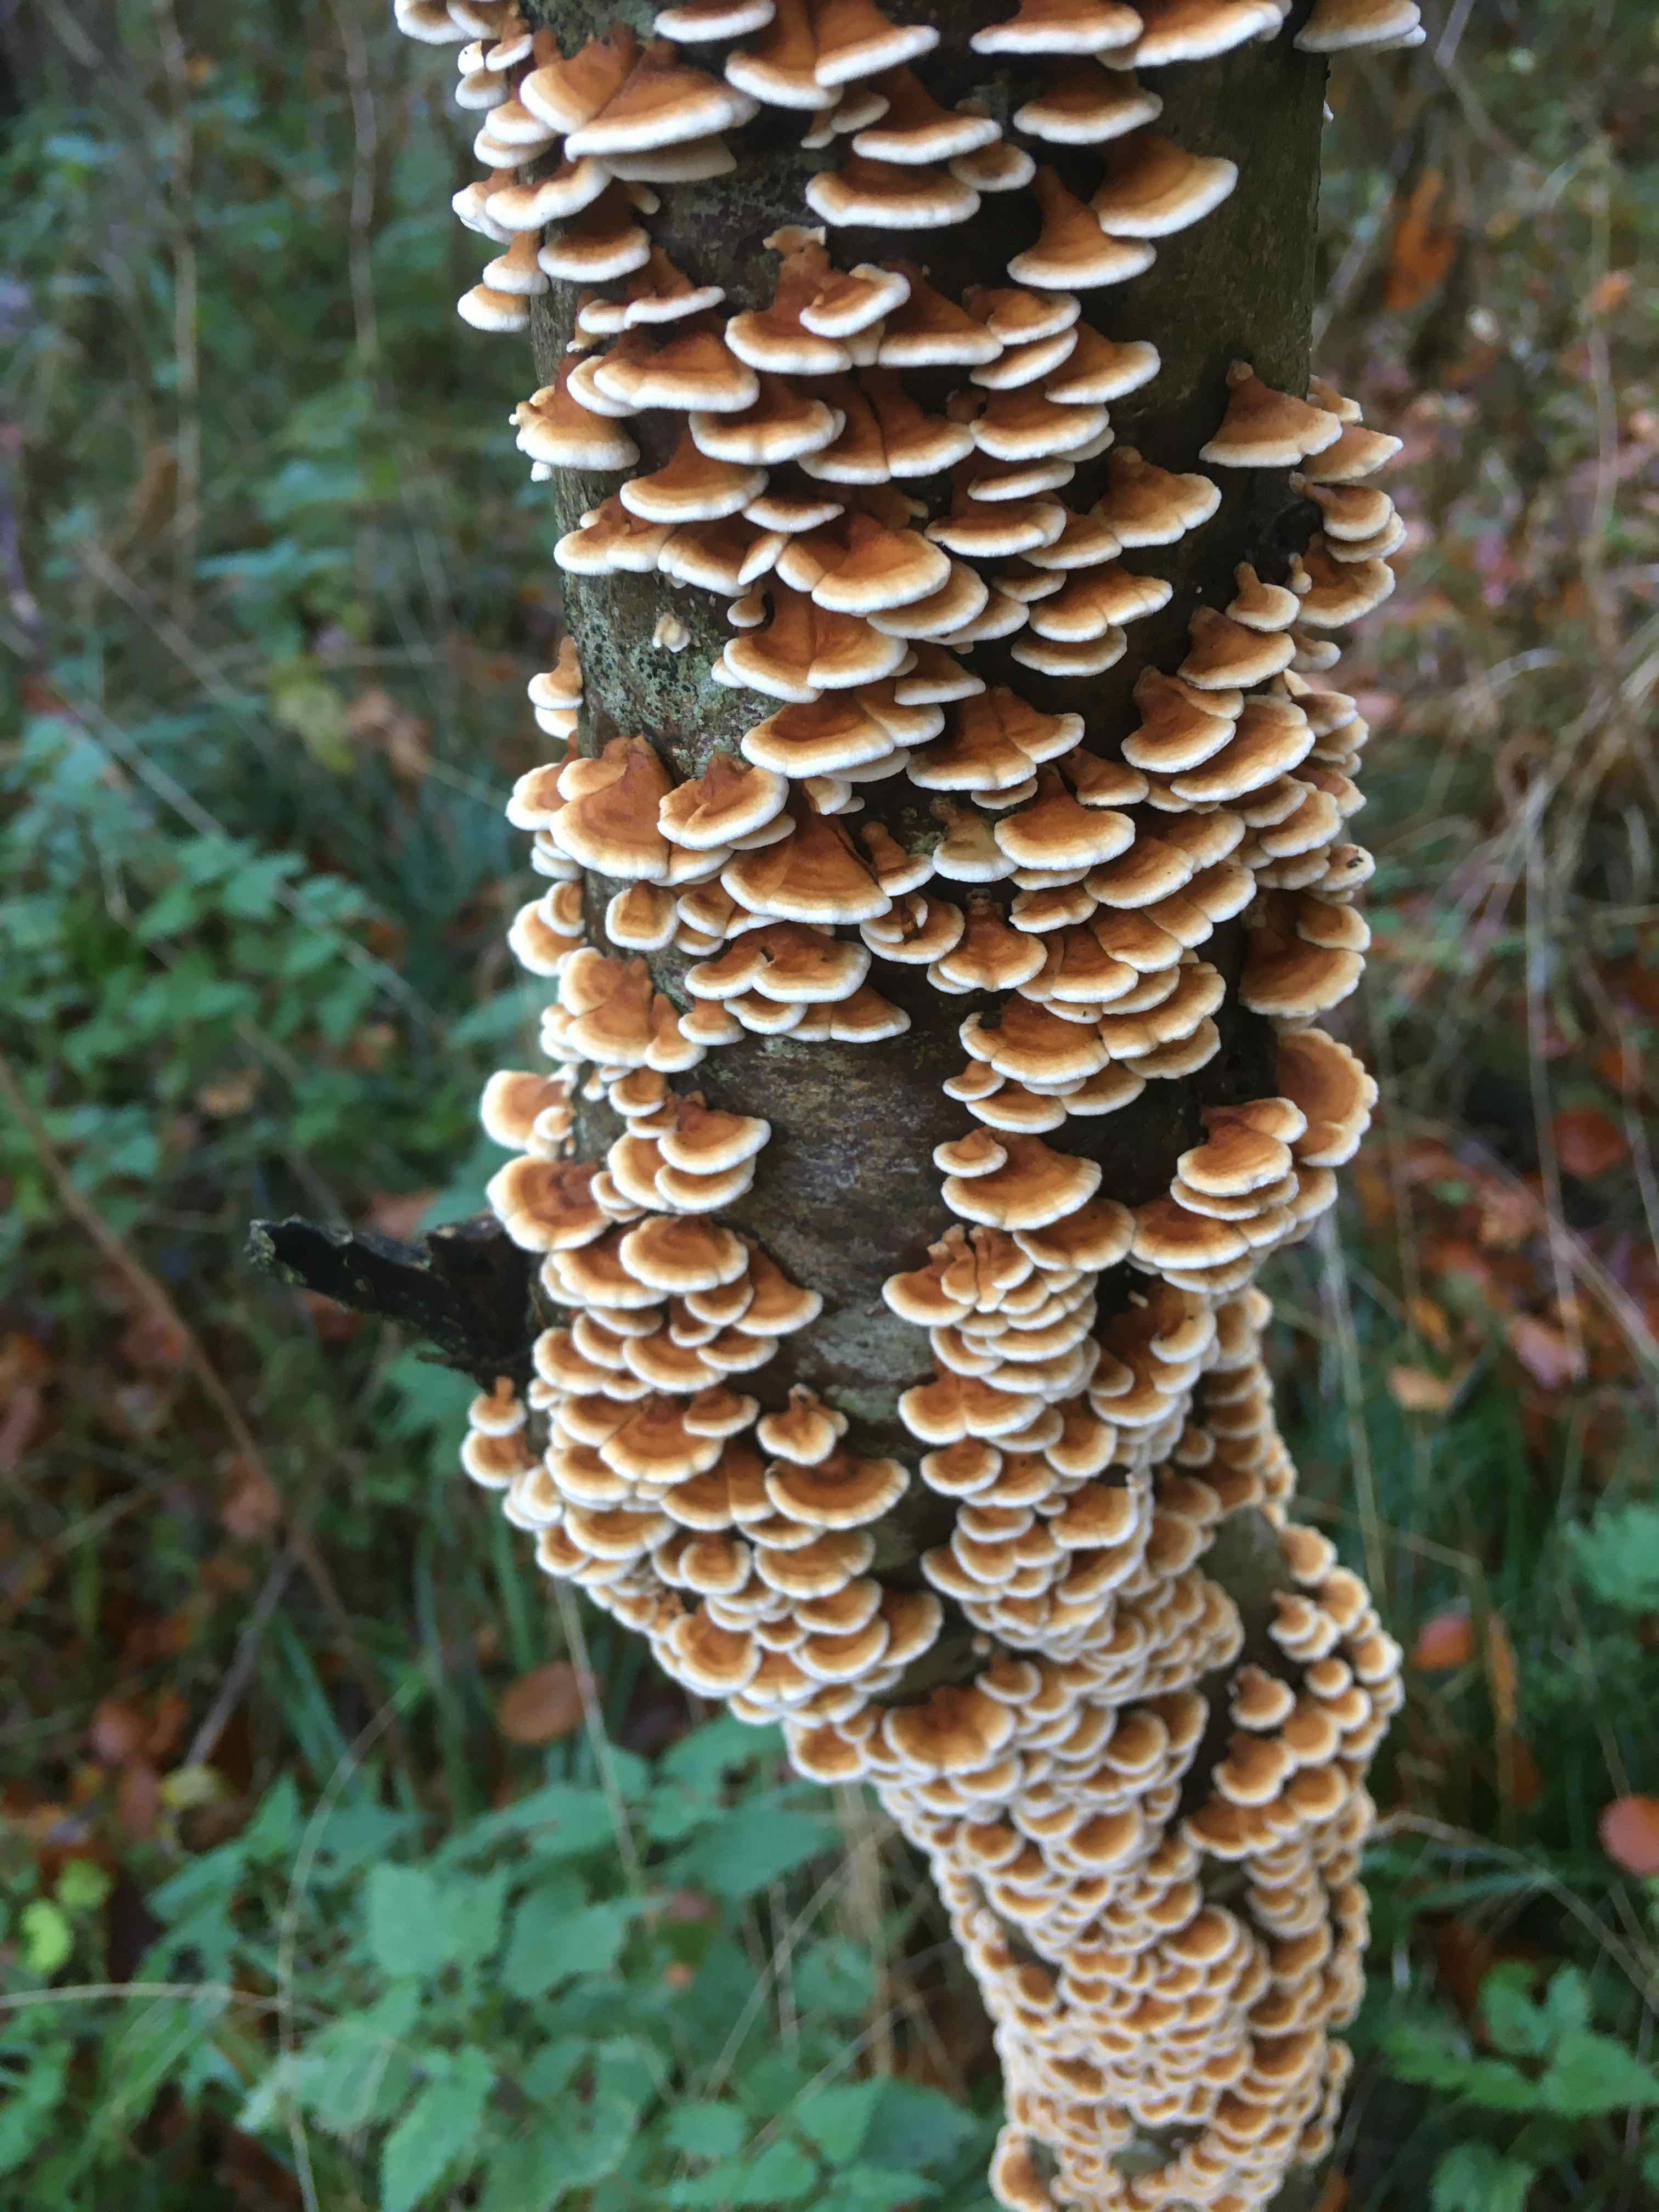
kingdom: Fungi
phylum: Basidiomycota
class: Agaricomycetes
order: Amylocorticiales
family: Amylocorticiaceae
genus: Plicaturopsis
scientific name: Plicaturopsis crispa
